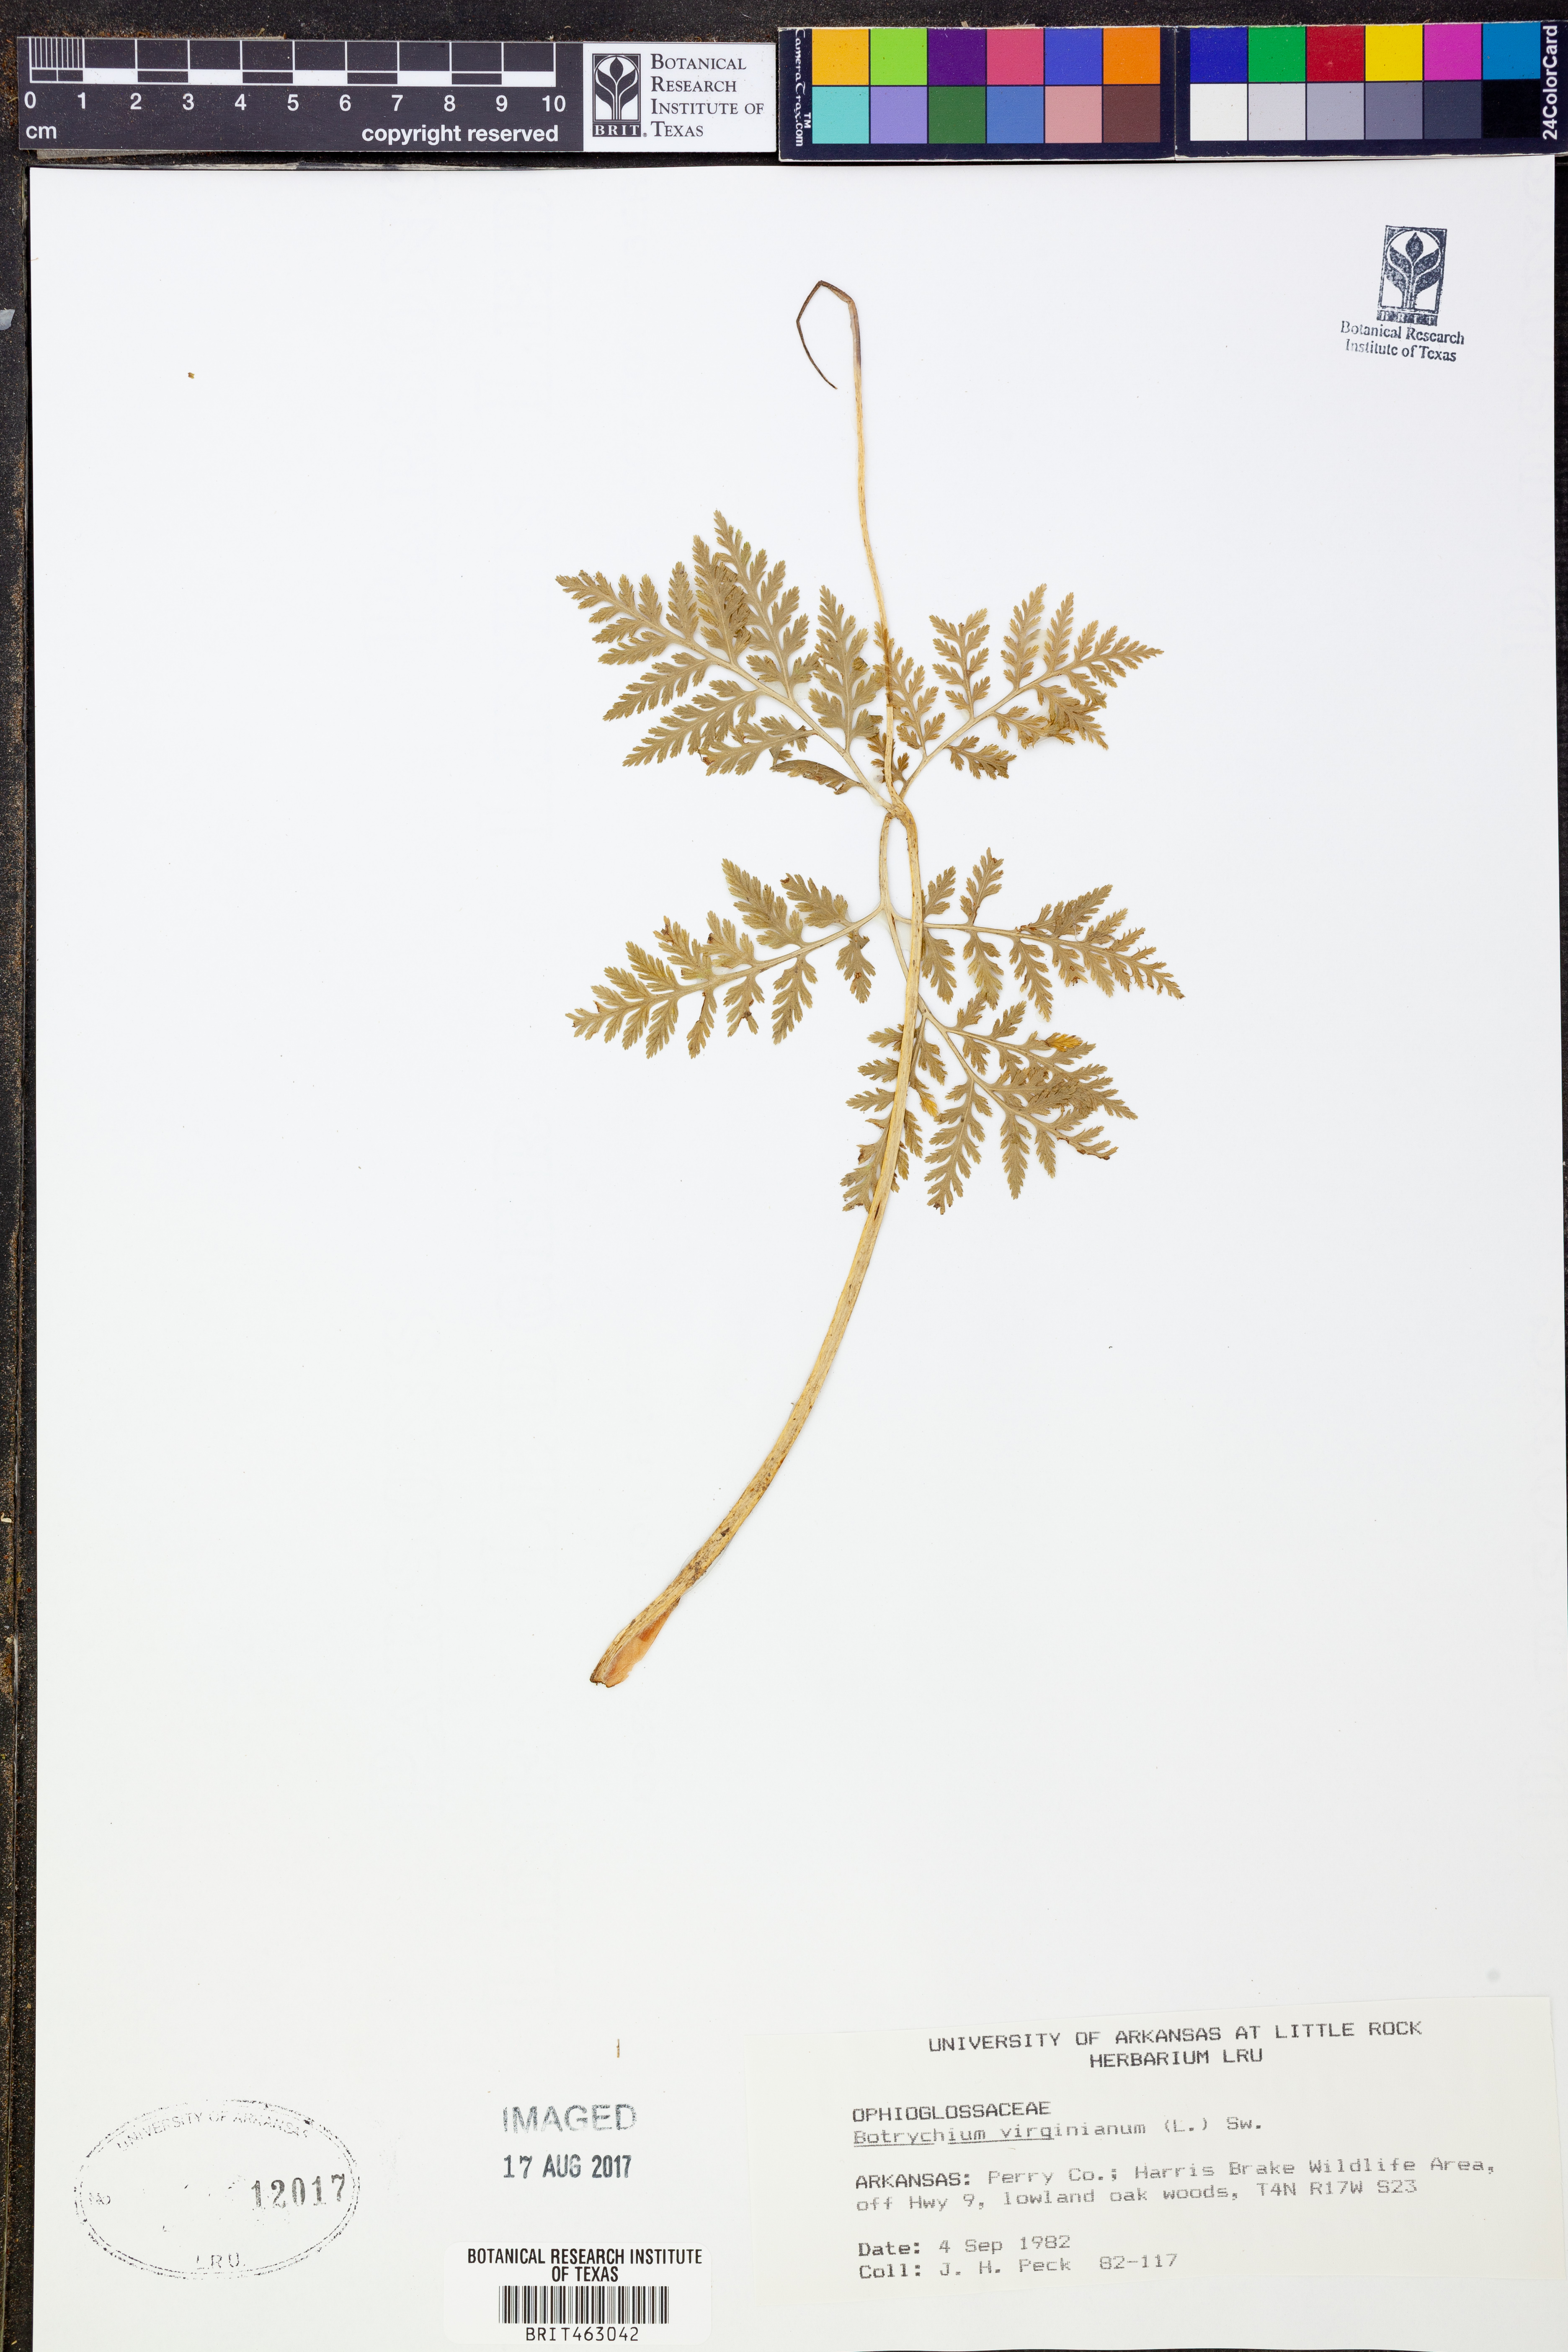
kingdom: Plantae
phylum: Tracheophyta
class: Polypodiopsida
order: Ophioglossales
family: Ophioglossaceae
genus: Botrypus
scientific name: Botrypus virginianus
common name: Common grapefern
